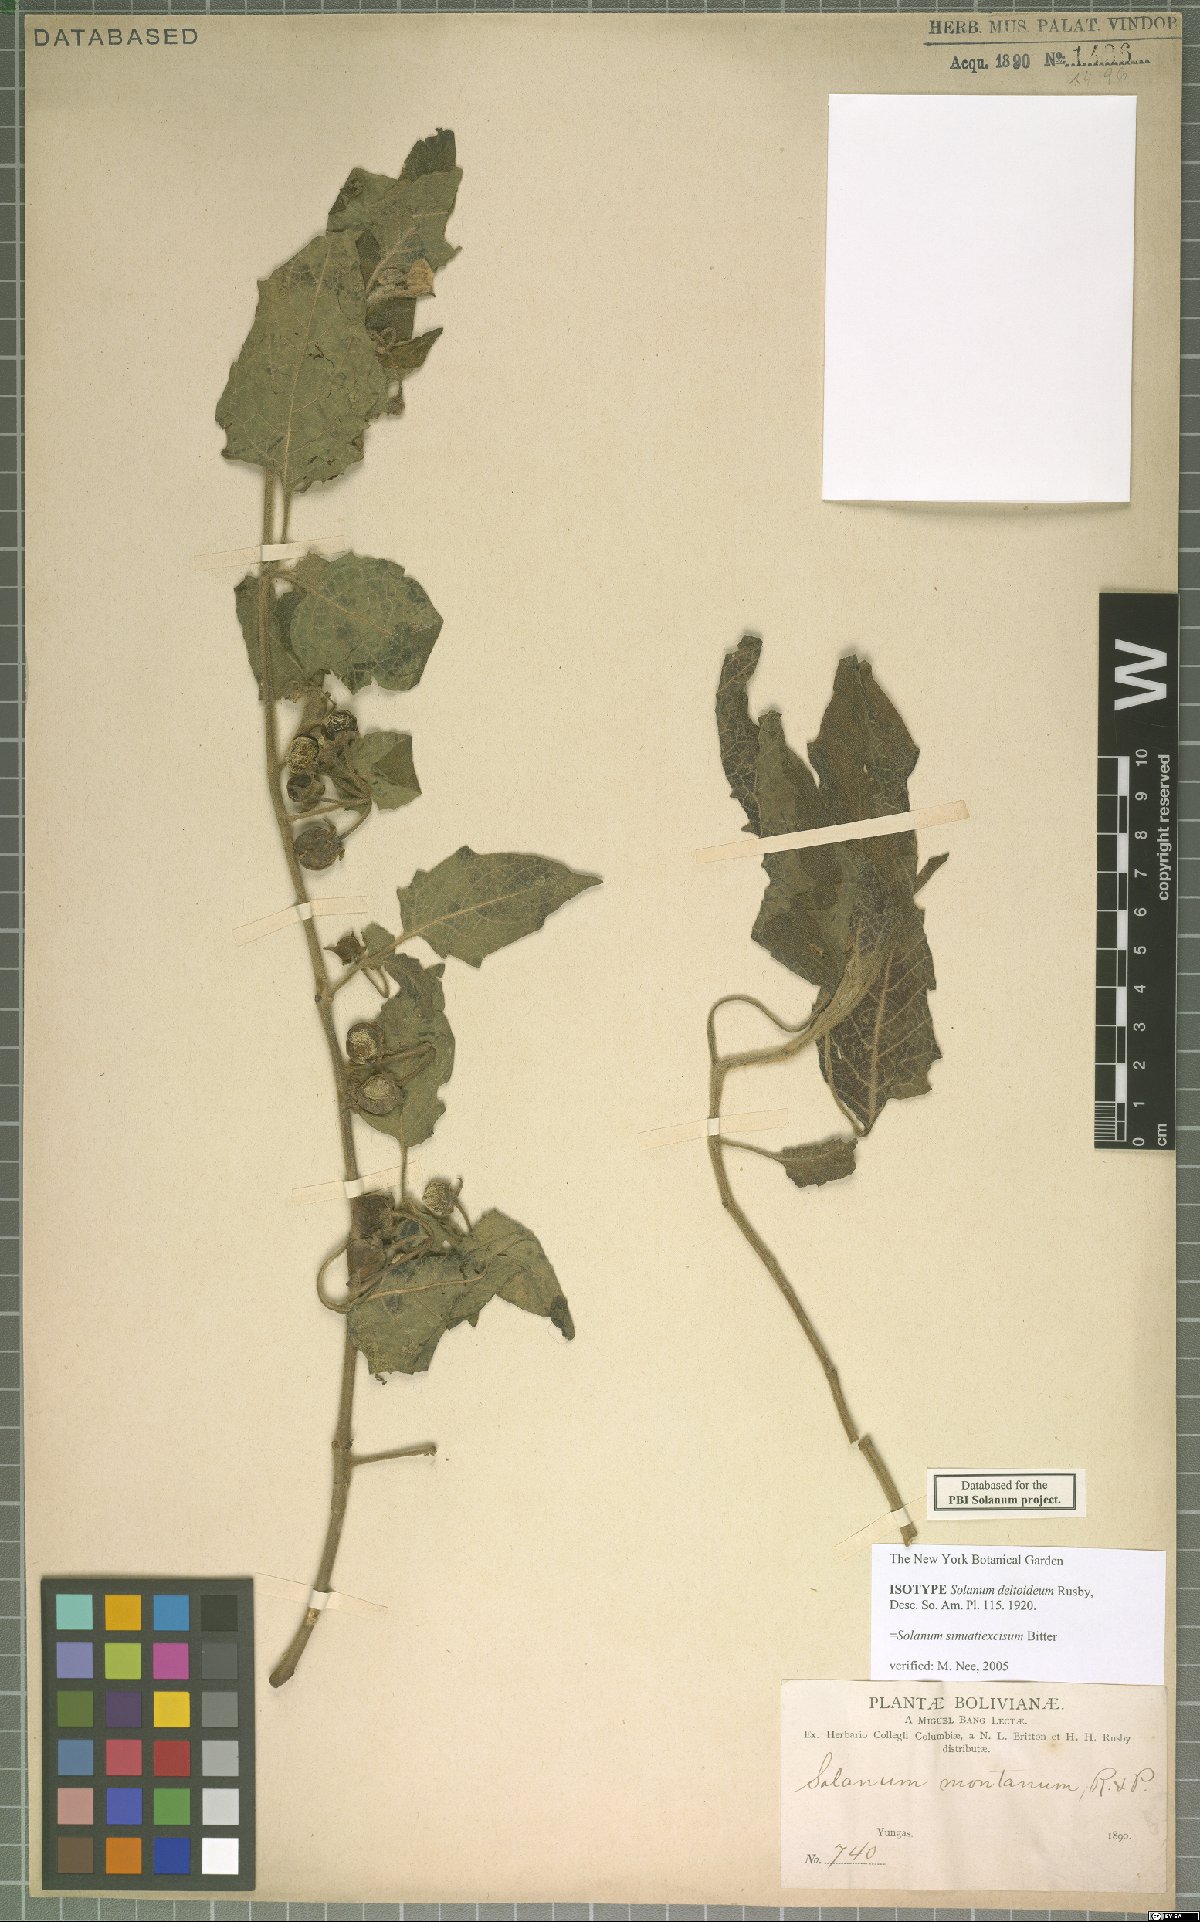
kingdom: Plantae
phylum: Tracheophyta
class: Magnoliopsida
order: Solanales
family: Solanaceae
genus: Solanum
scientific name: Solanum sinuatiexcisum
